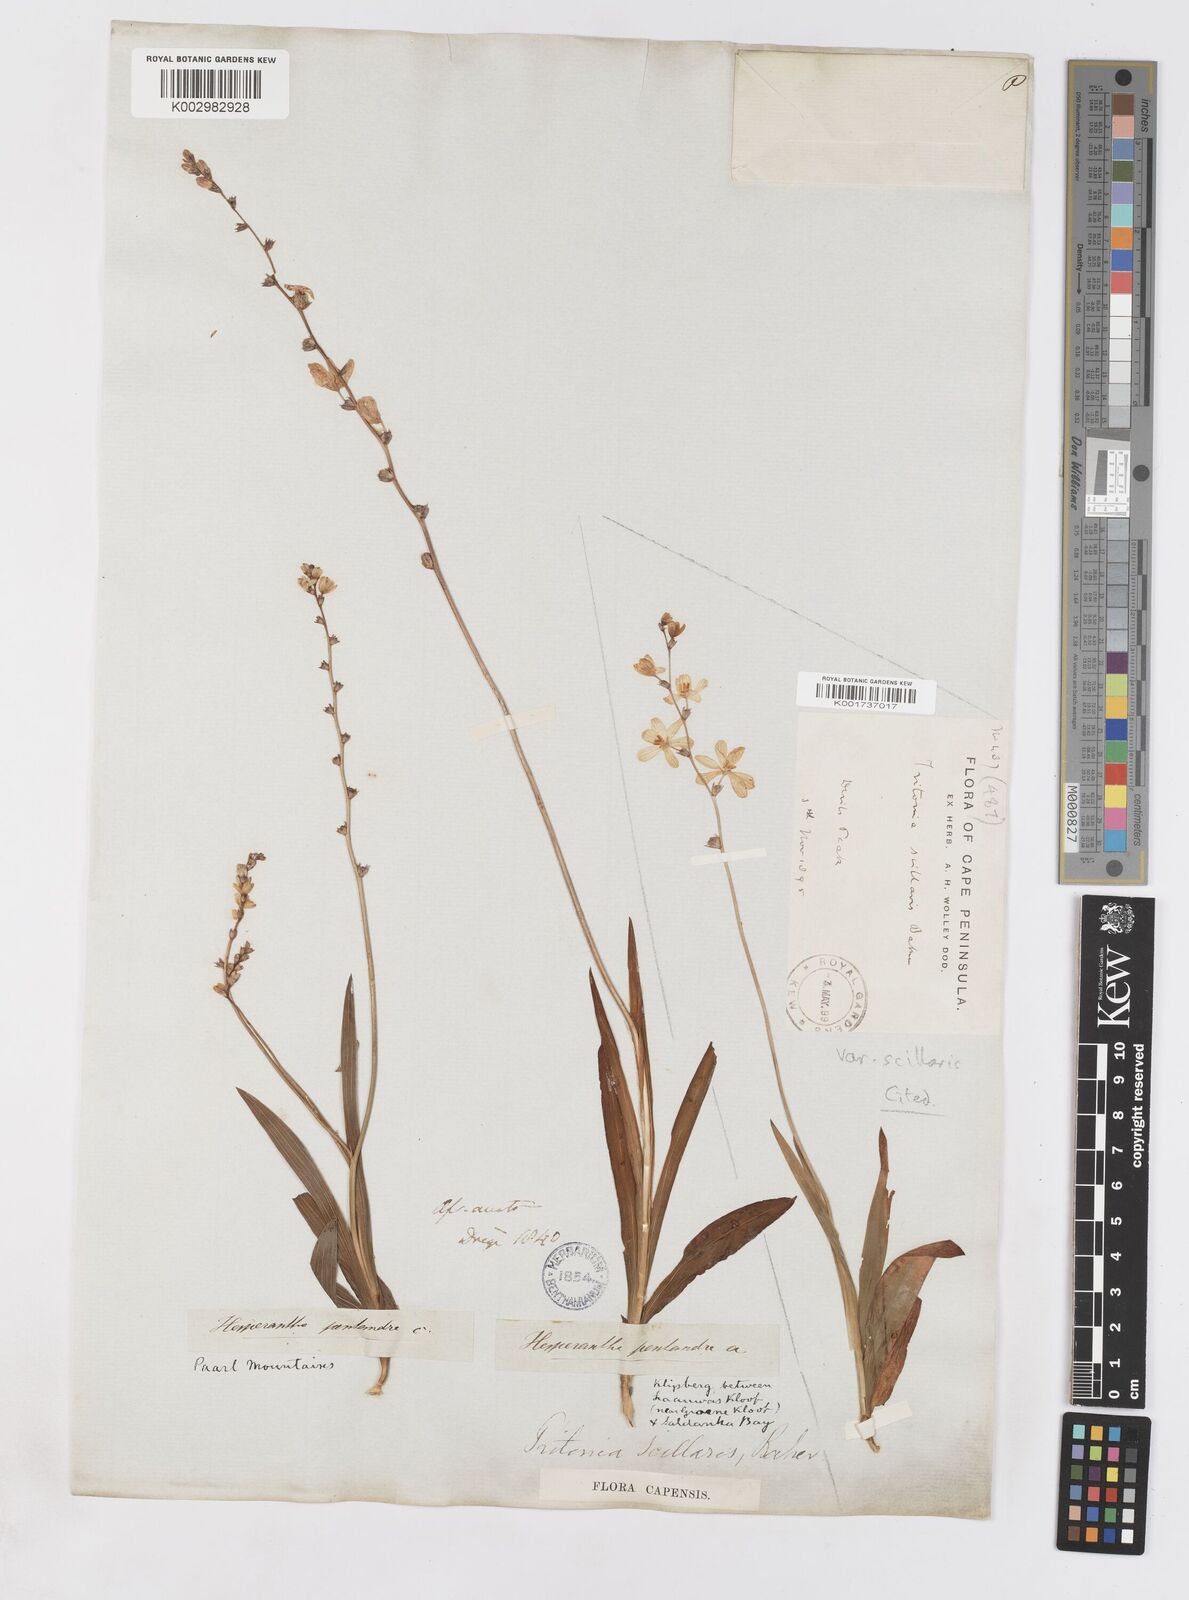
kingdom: Plantae
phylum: Tracheophyta
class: Liliopsida
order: Asparagales
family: Iridaceae
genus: Ixia
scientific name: Ixia scillaris
